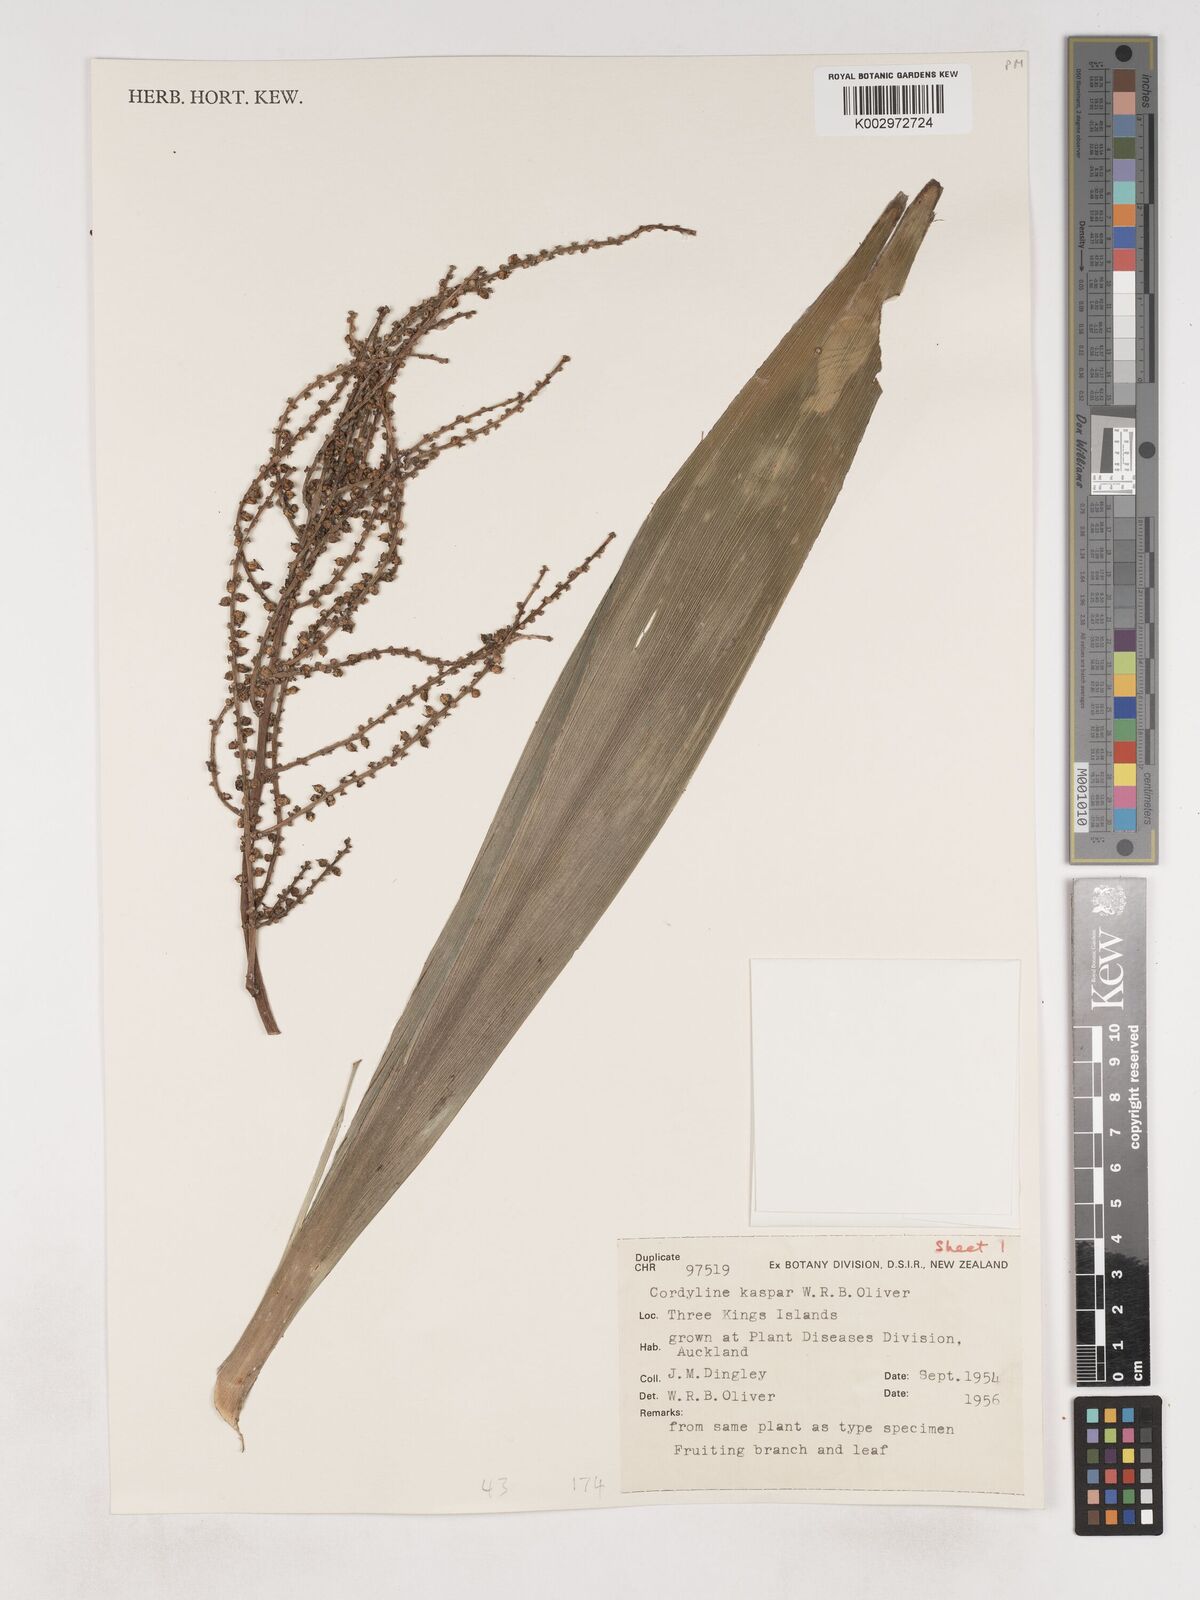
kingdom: Plantae
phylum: Tracheophyta
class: Liliopsida
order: Asparagales
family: Asparagaceae
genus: Cordyline
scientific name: Cordyline obtecta
